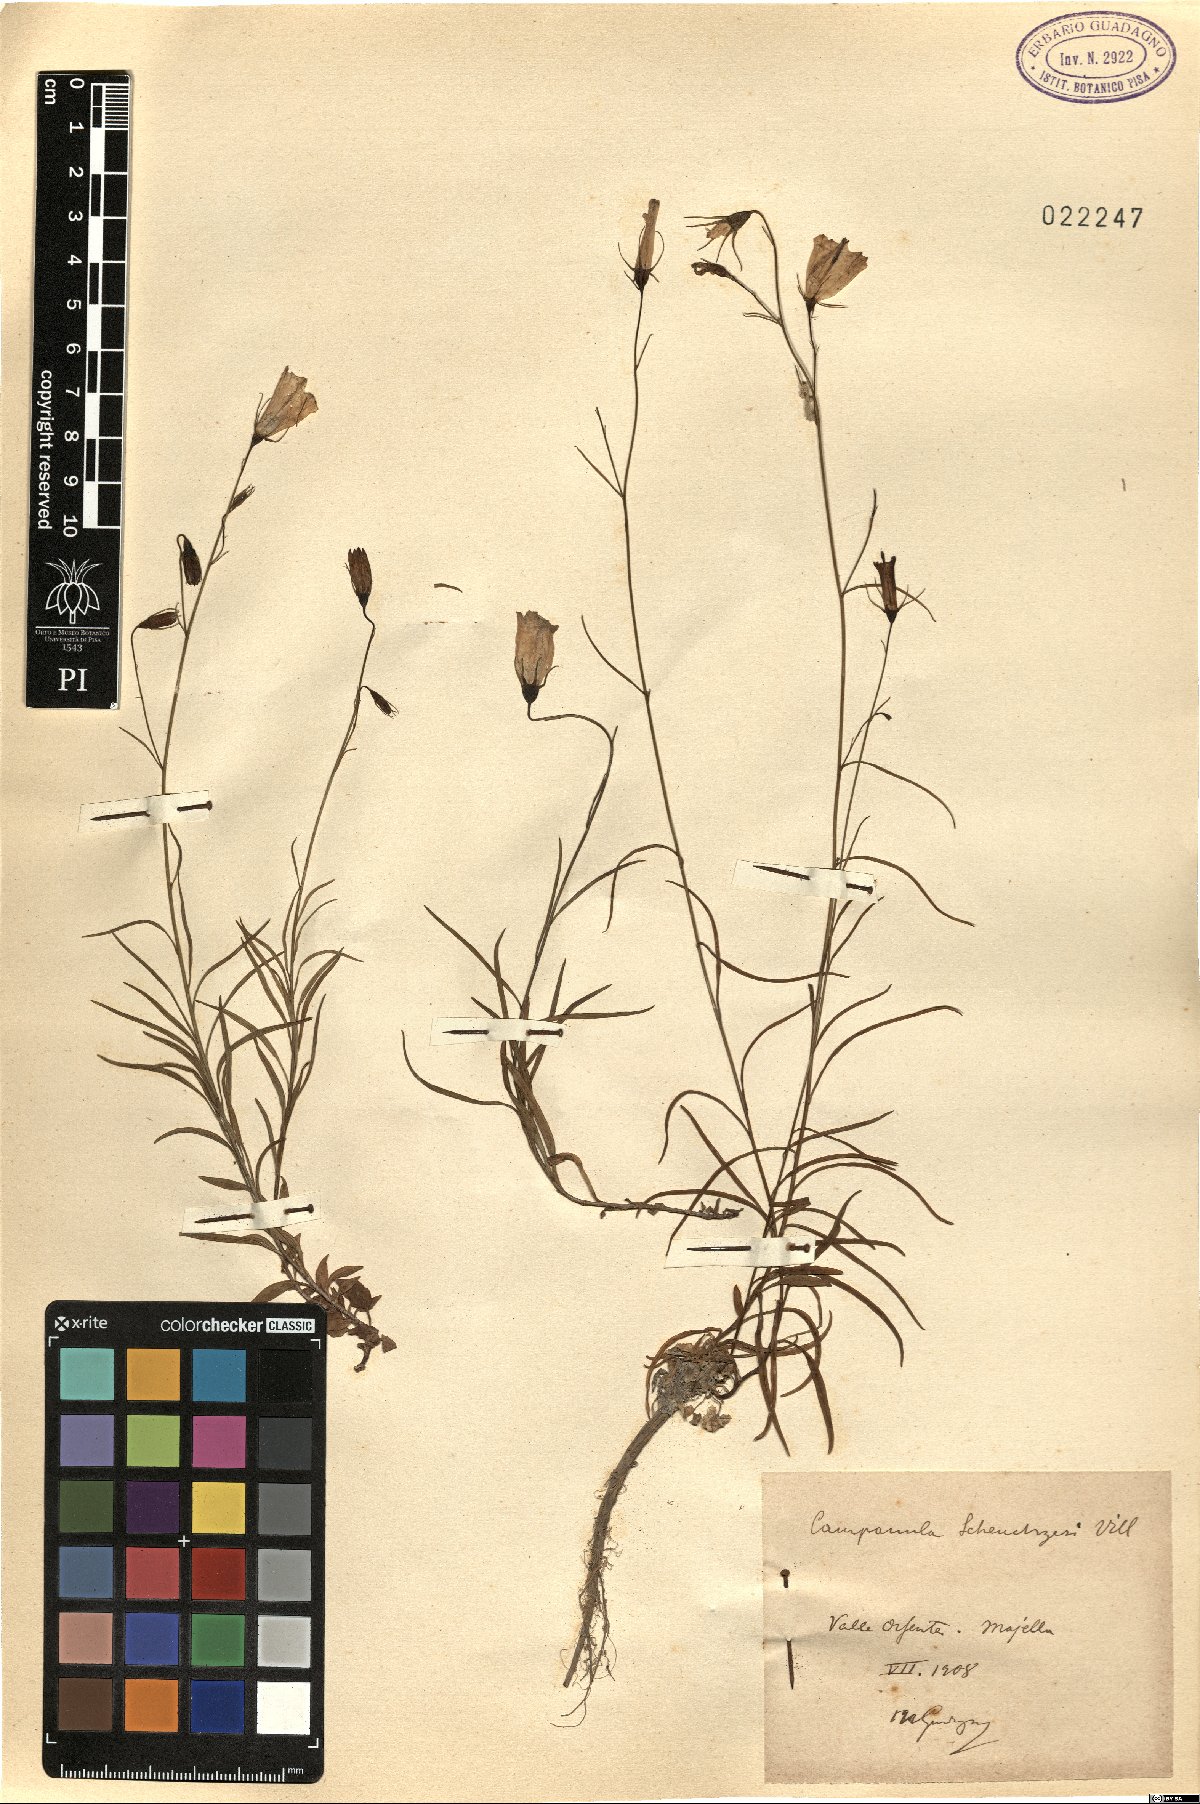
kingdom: Plantae
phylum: Tracheophyta
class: Magnoliopsida
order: Asterales
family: Campanulaceae
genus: Campanula
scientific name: Campanula scheuchzeri
